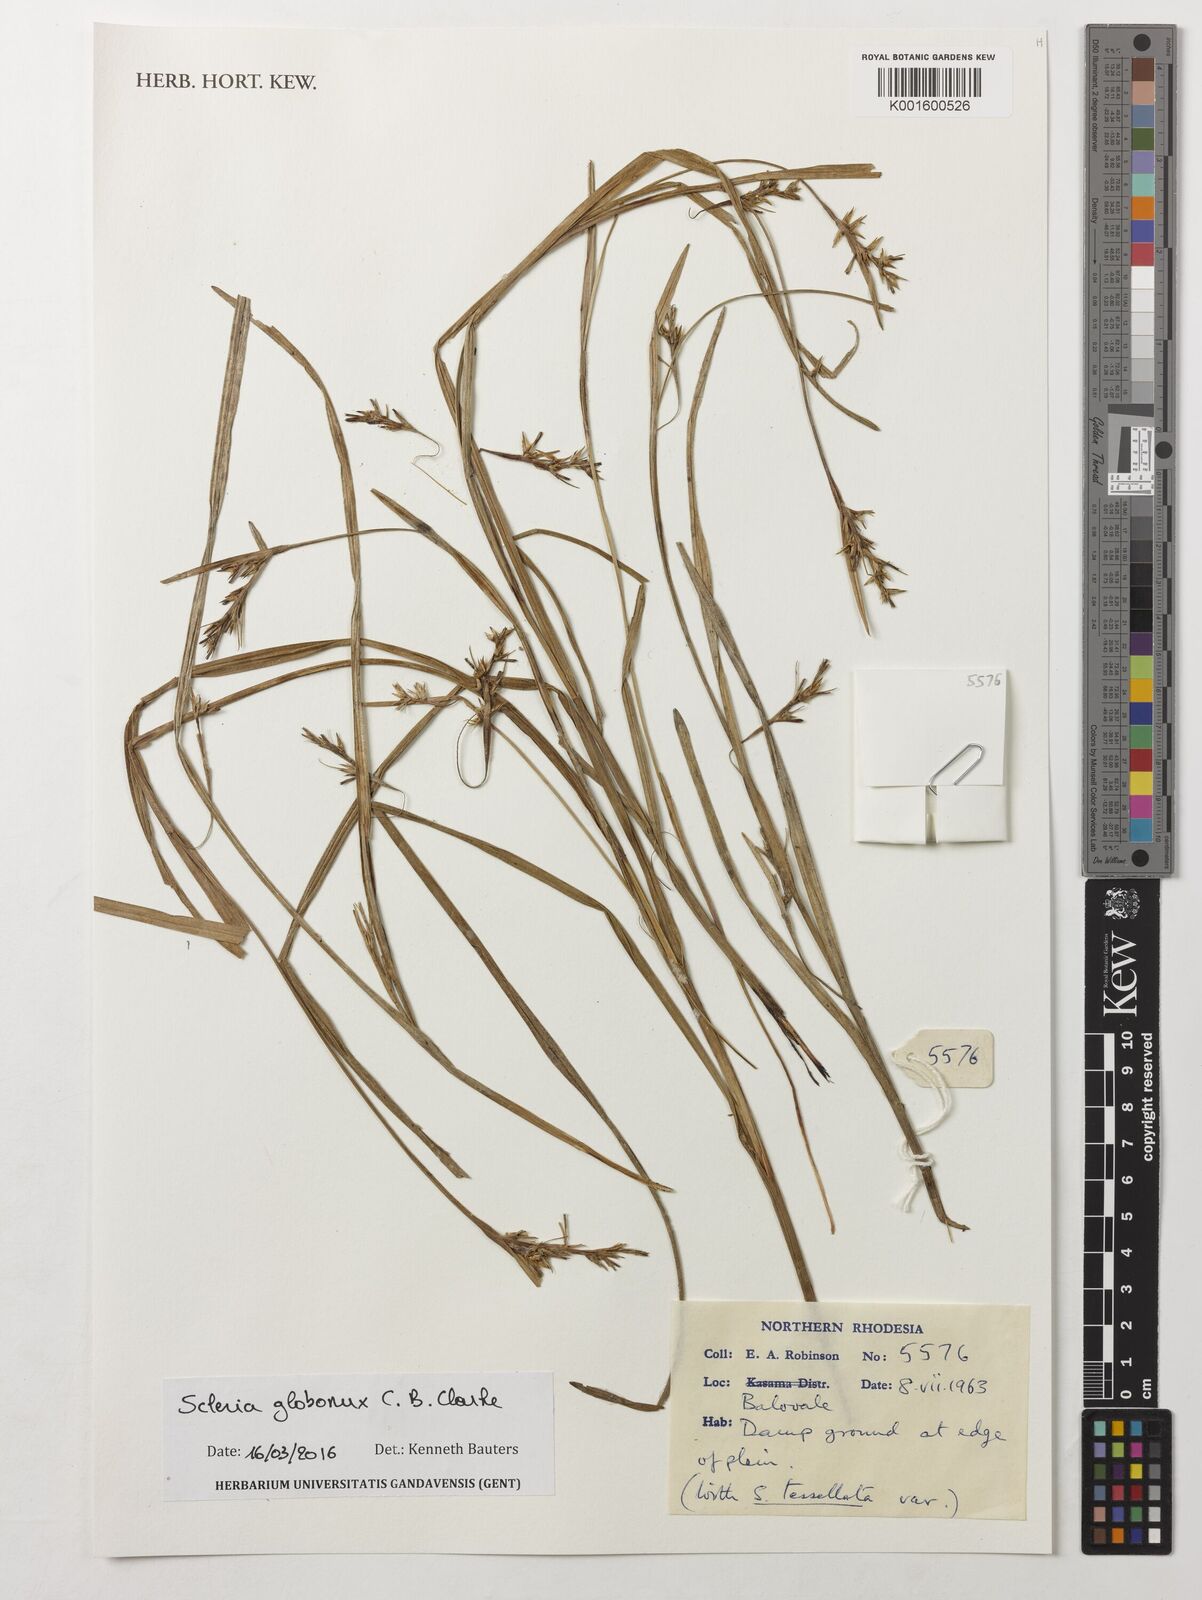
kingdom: Plantae
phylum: Tracheophyta
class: Liliopsida
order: Poales
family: Cyperaceae
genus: Scleria
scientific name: Scleria globonux
